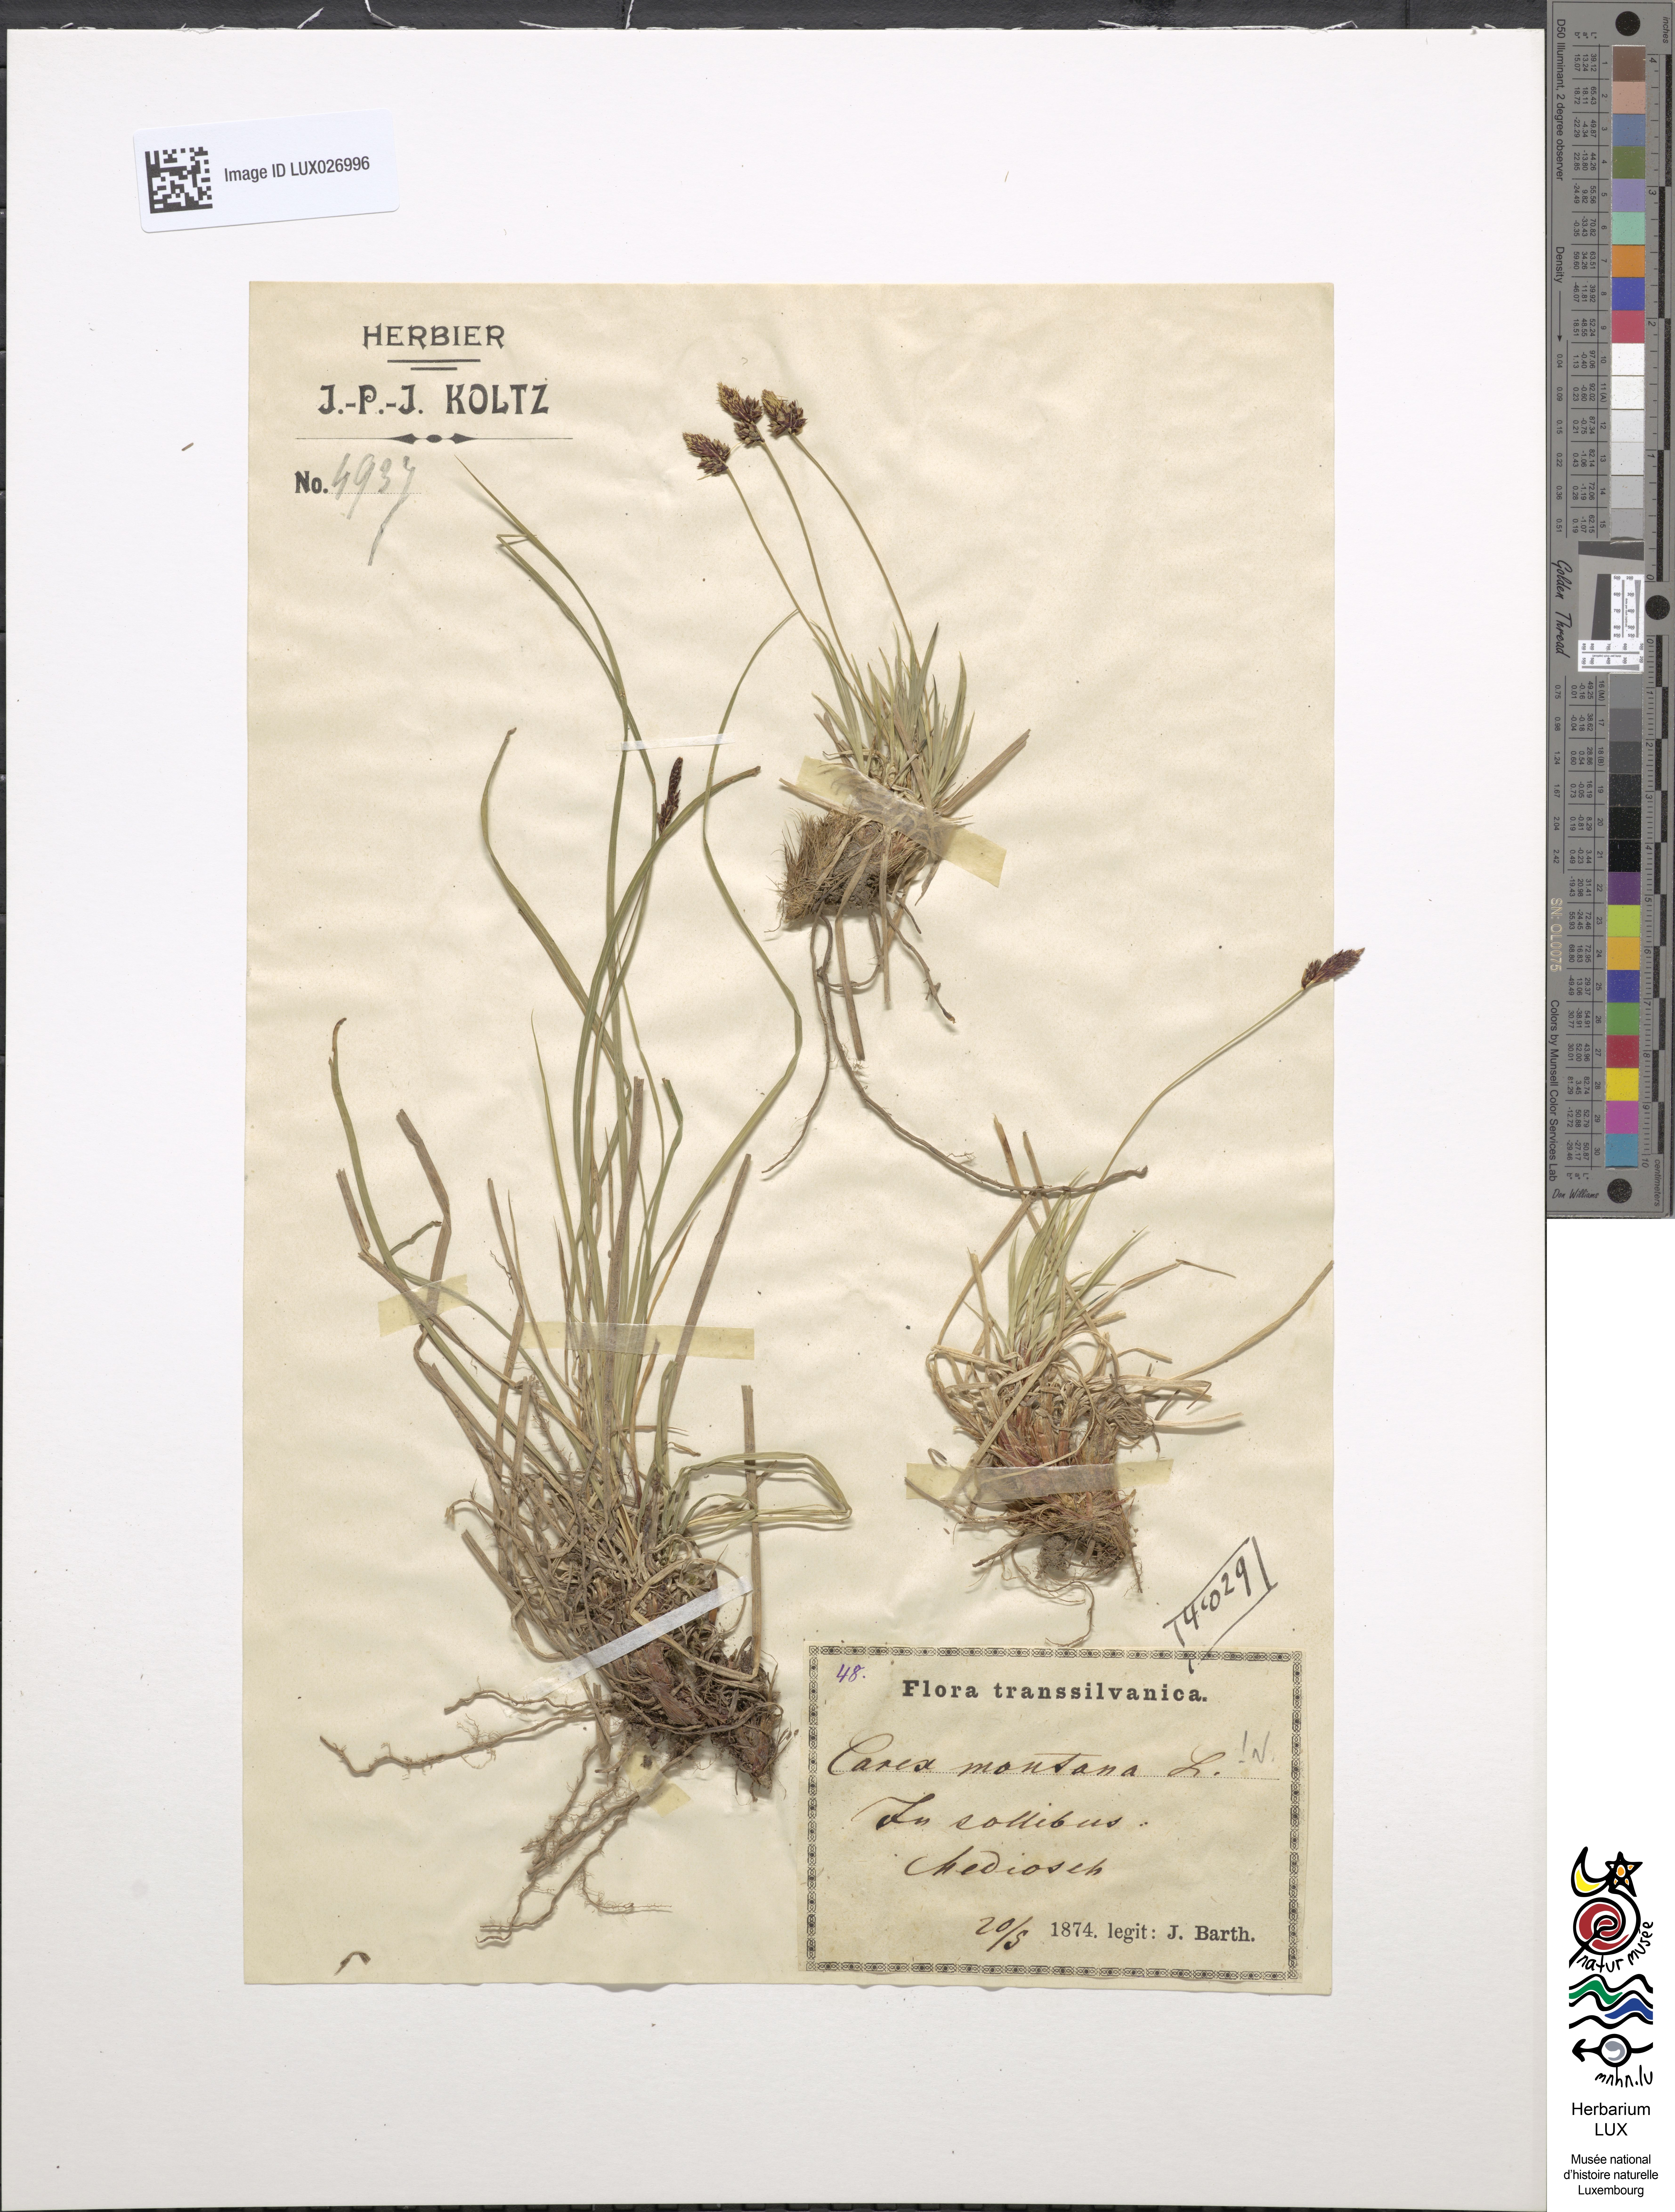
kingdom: Plantae
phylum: Tracheophyta
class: Liliopsida
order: Poales
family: Cyperaceae
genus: Carex
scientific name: Carex montana
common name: Soft-leaved sedge
